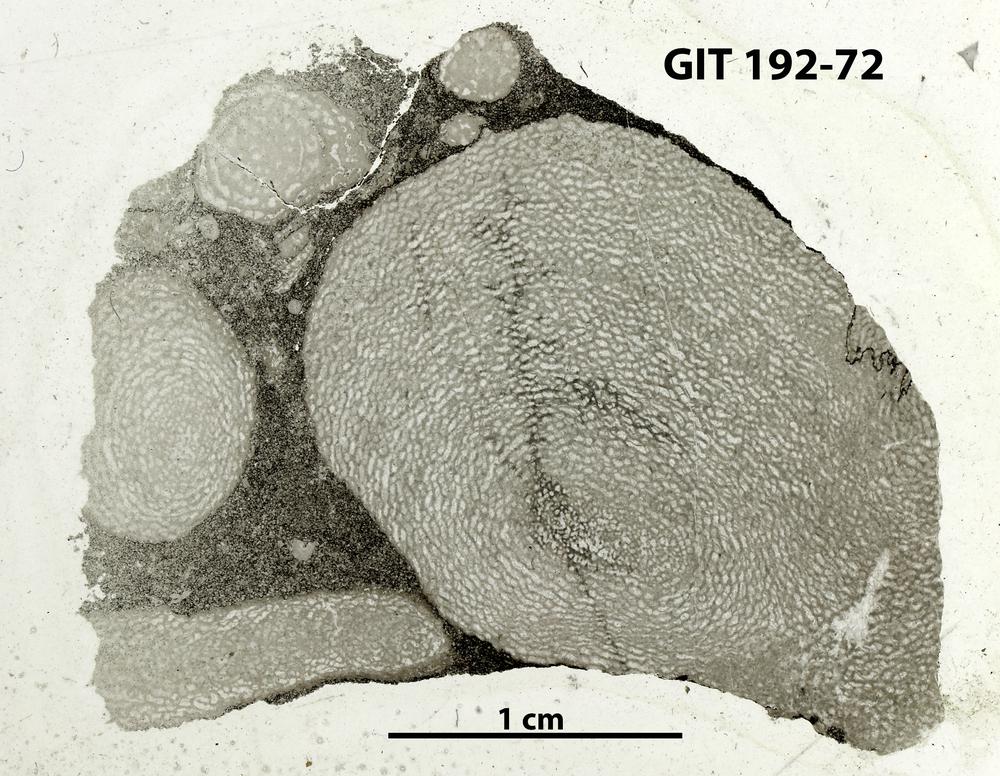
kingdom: Animalia
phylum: Porifera
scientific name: Porifera
